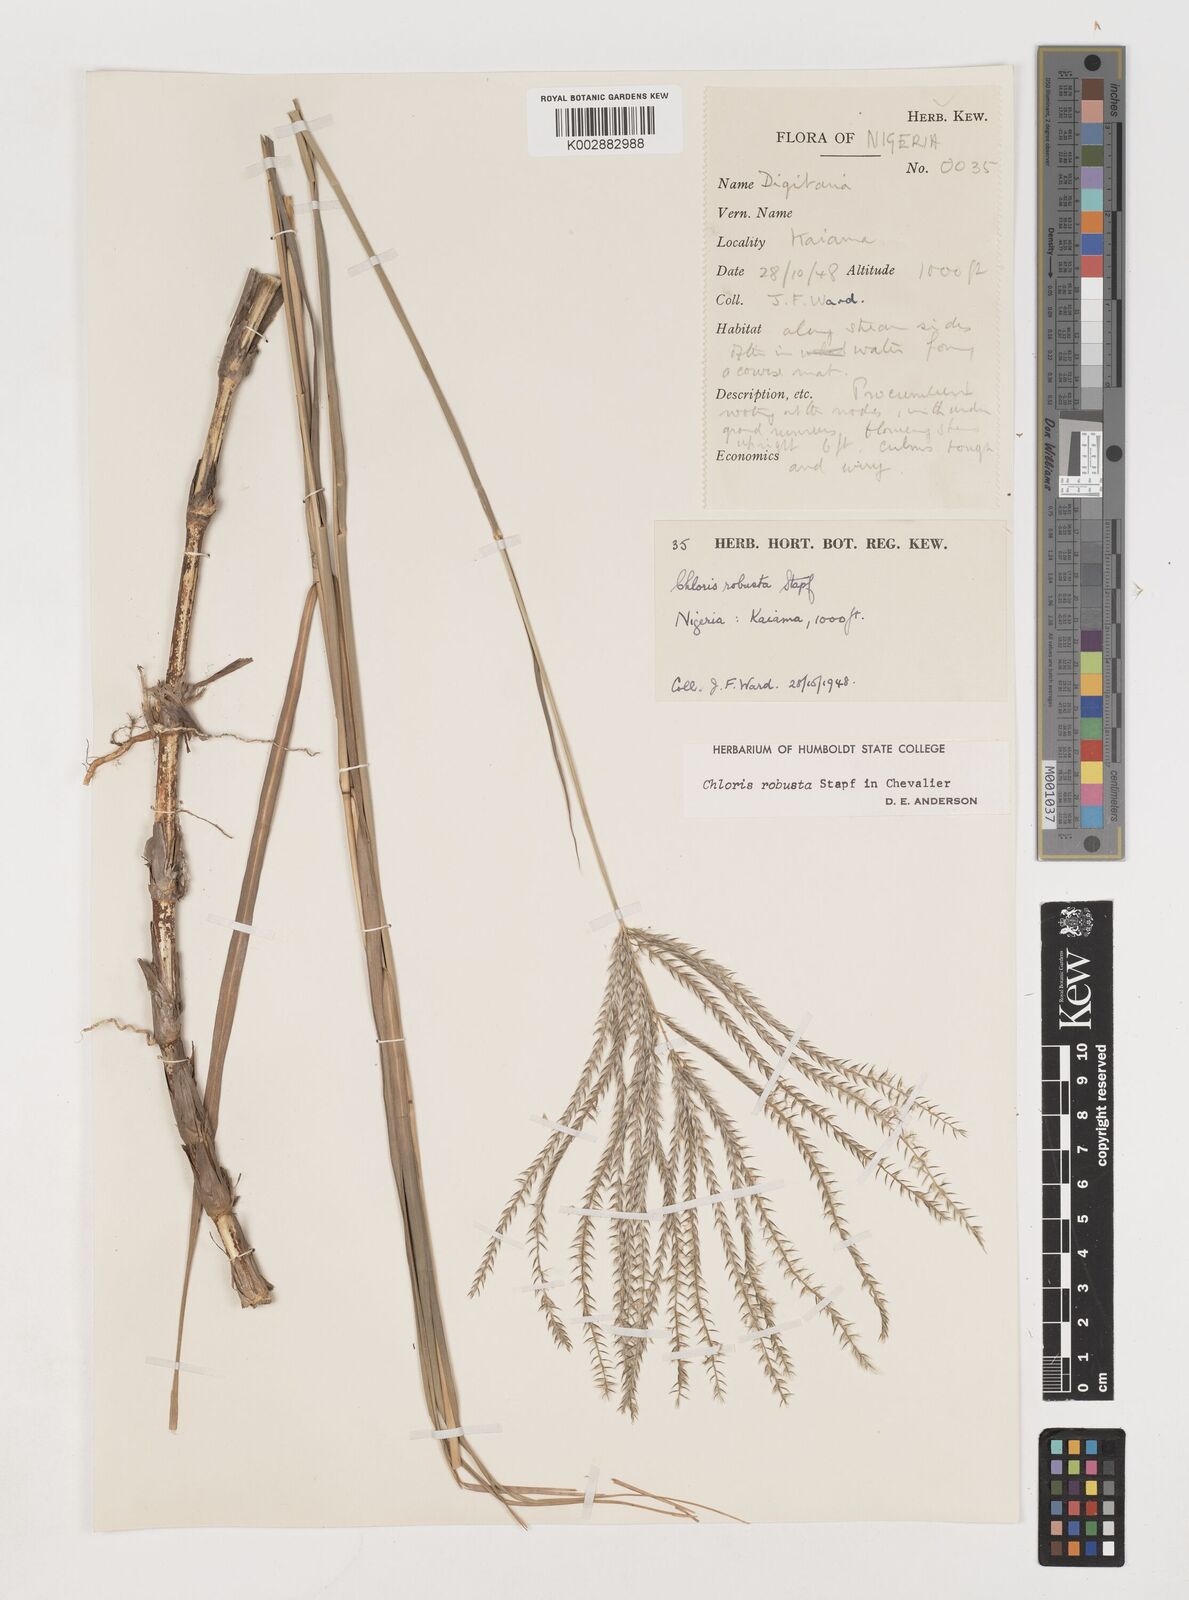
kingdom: Plantae
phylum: Tracheophyta
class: Liliopsida
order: Poales
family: Poaceae
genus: Chloris
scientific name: Chloris robusta
